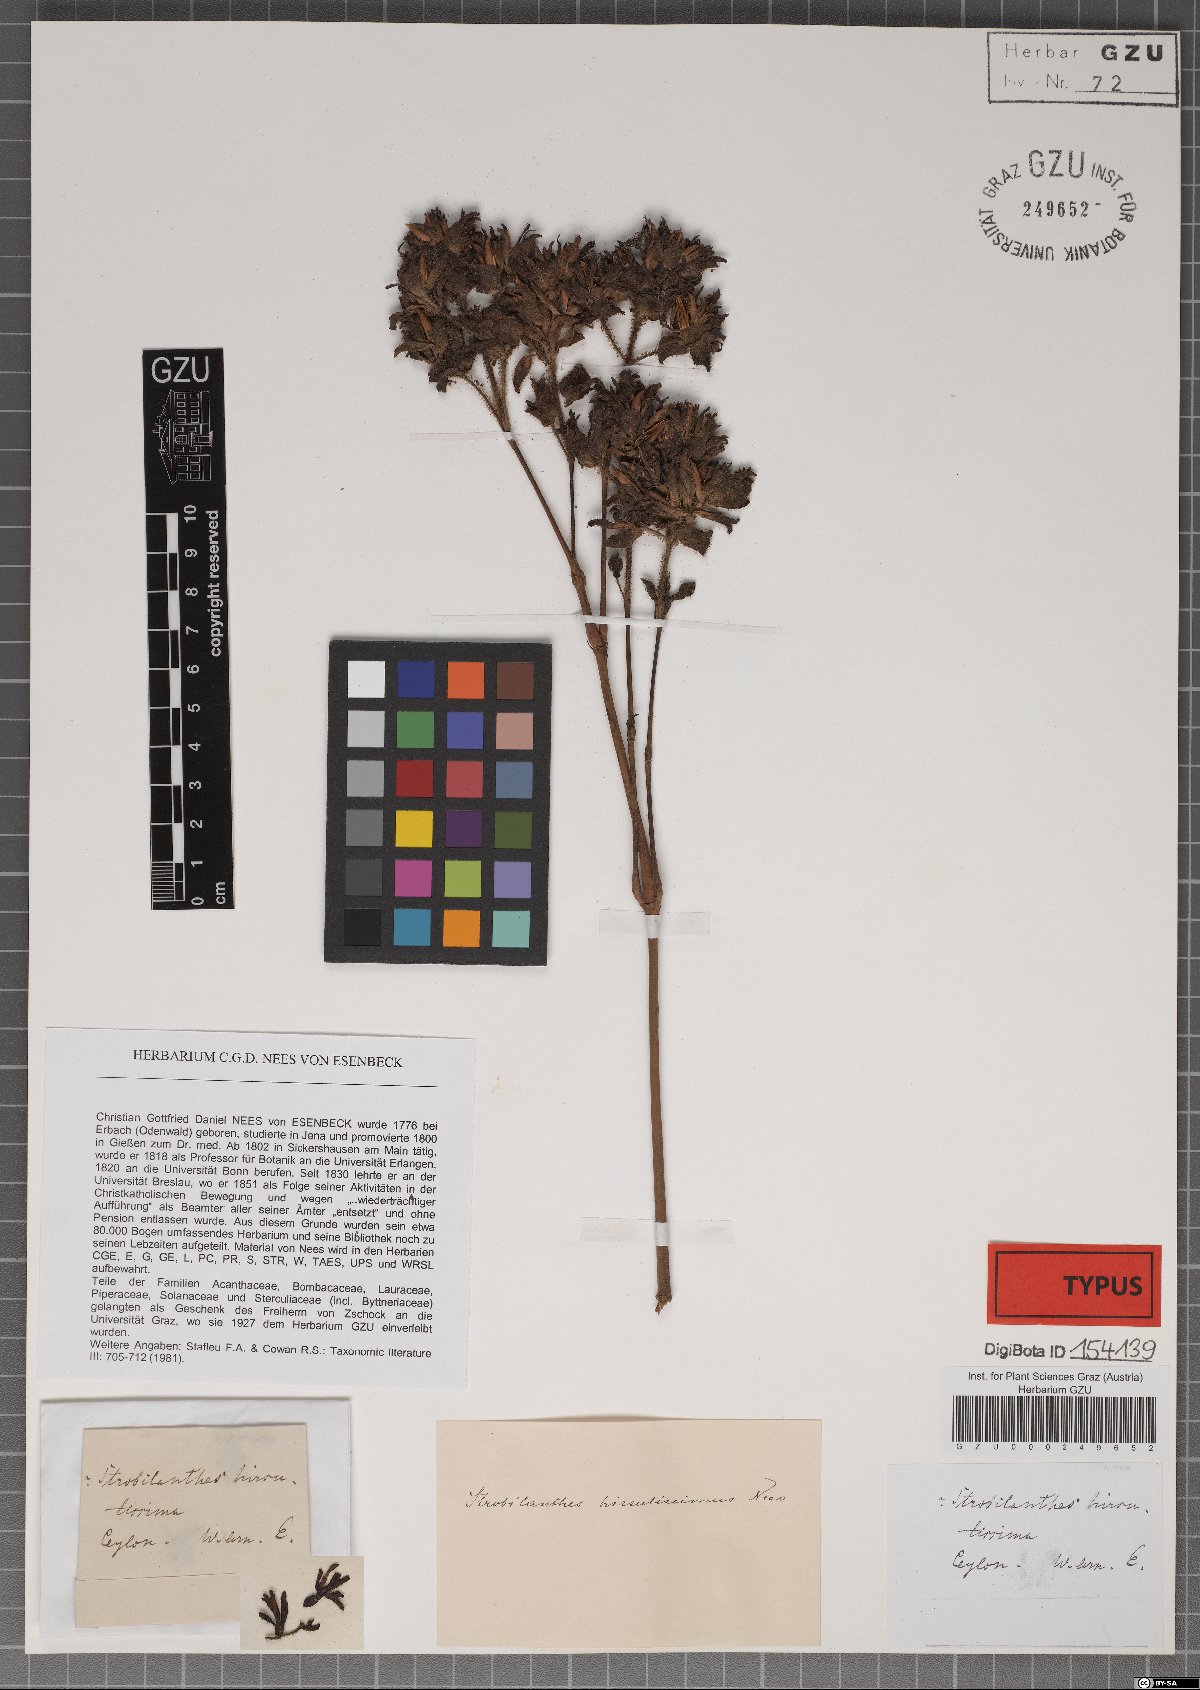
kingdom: Plantae
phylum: Tracheophyta
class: Magnoliopsida
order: Lamiales
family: Acanthaceae
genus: Strobilanthes
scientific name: Strobilanthes sexennis
